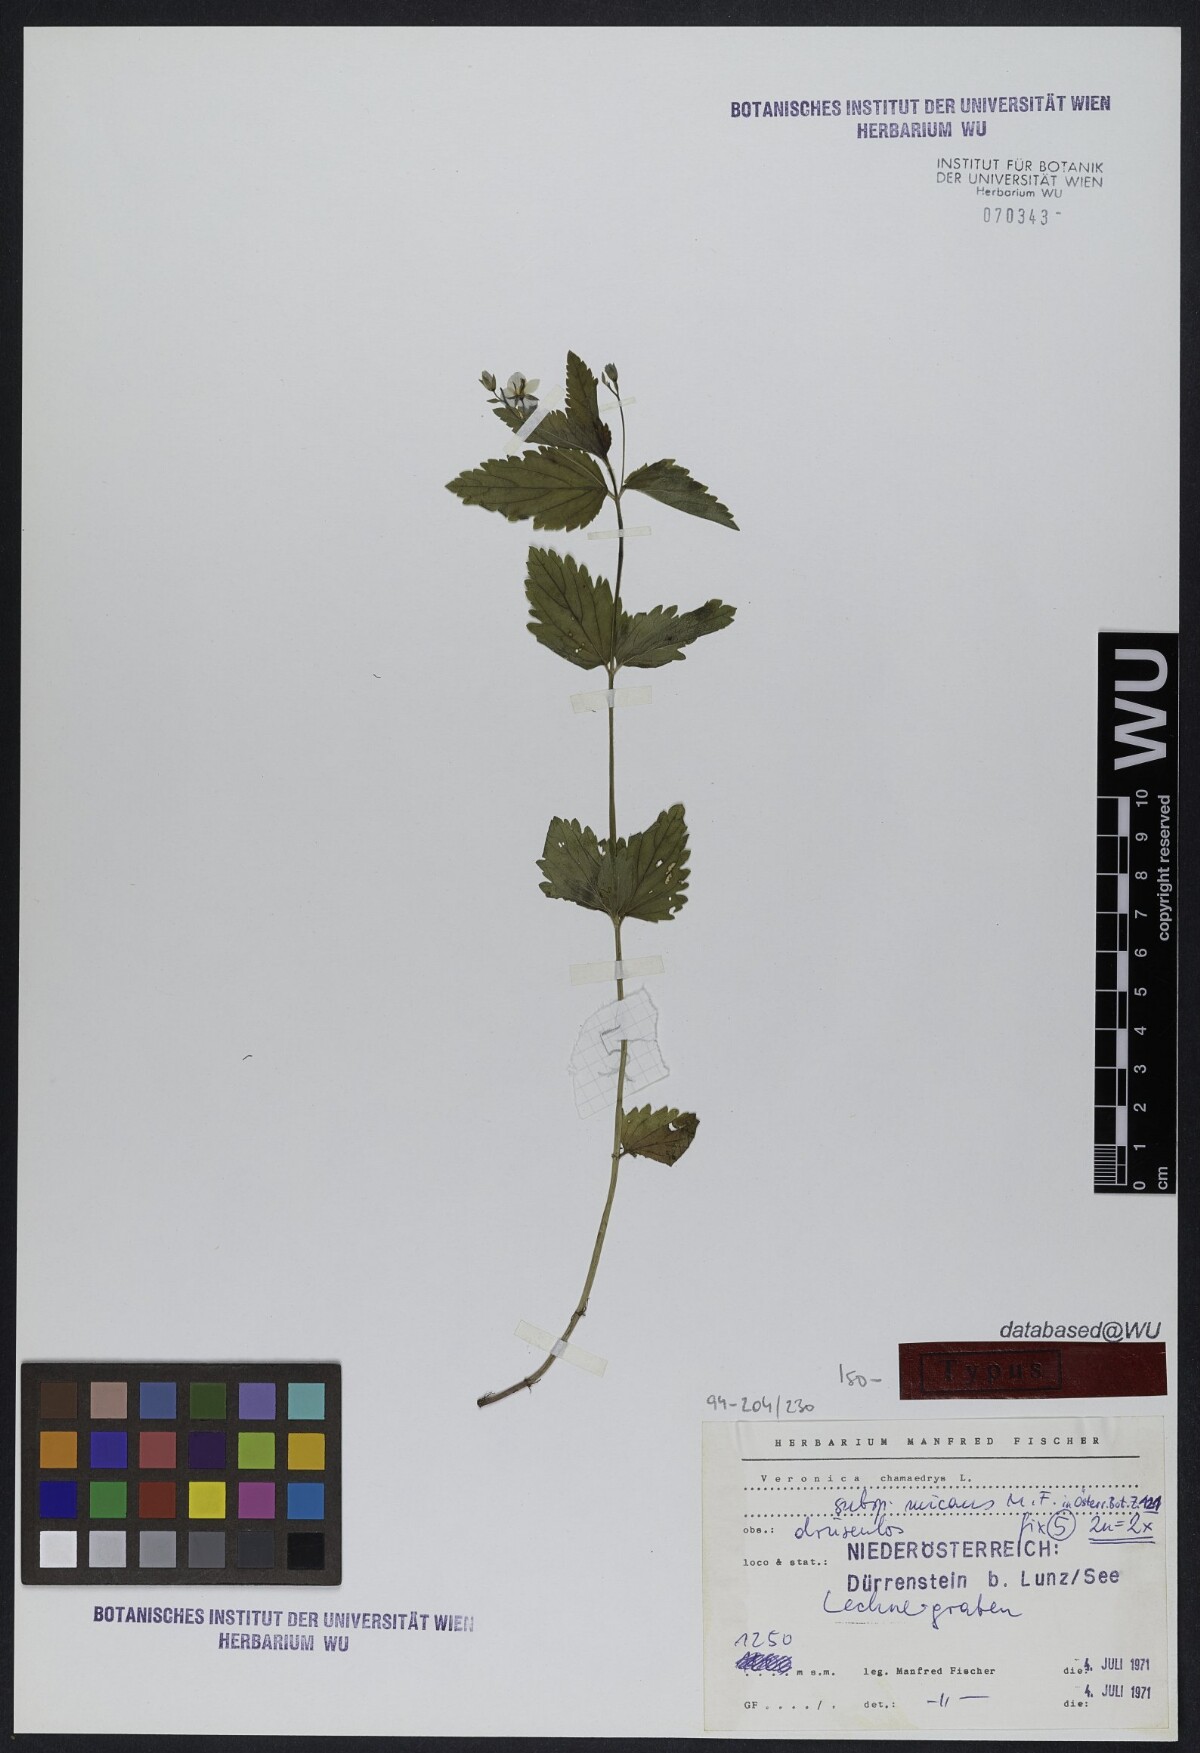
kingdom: Plantae
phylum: Tracheophyta
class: Magnoliopsida
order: Lamiales
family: Plantaginaceae
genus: Veronica
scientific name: Veronica chamaedrys
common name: Germander speedwell
